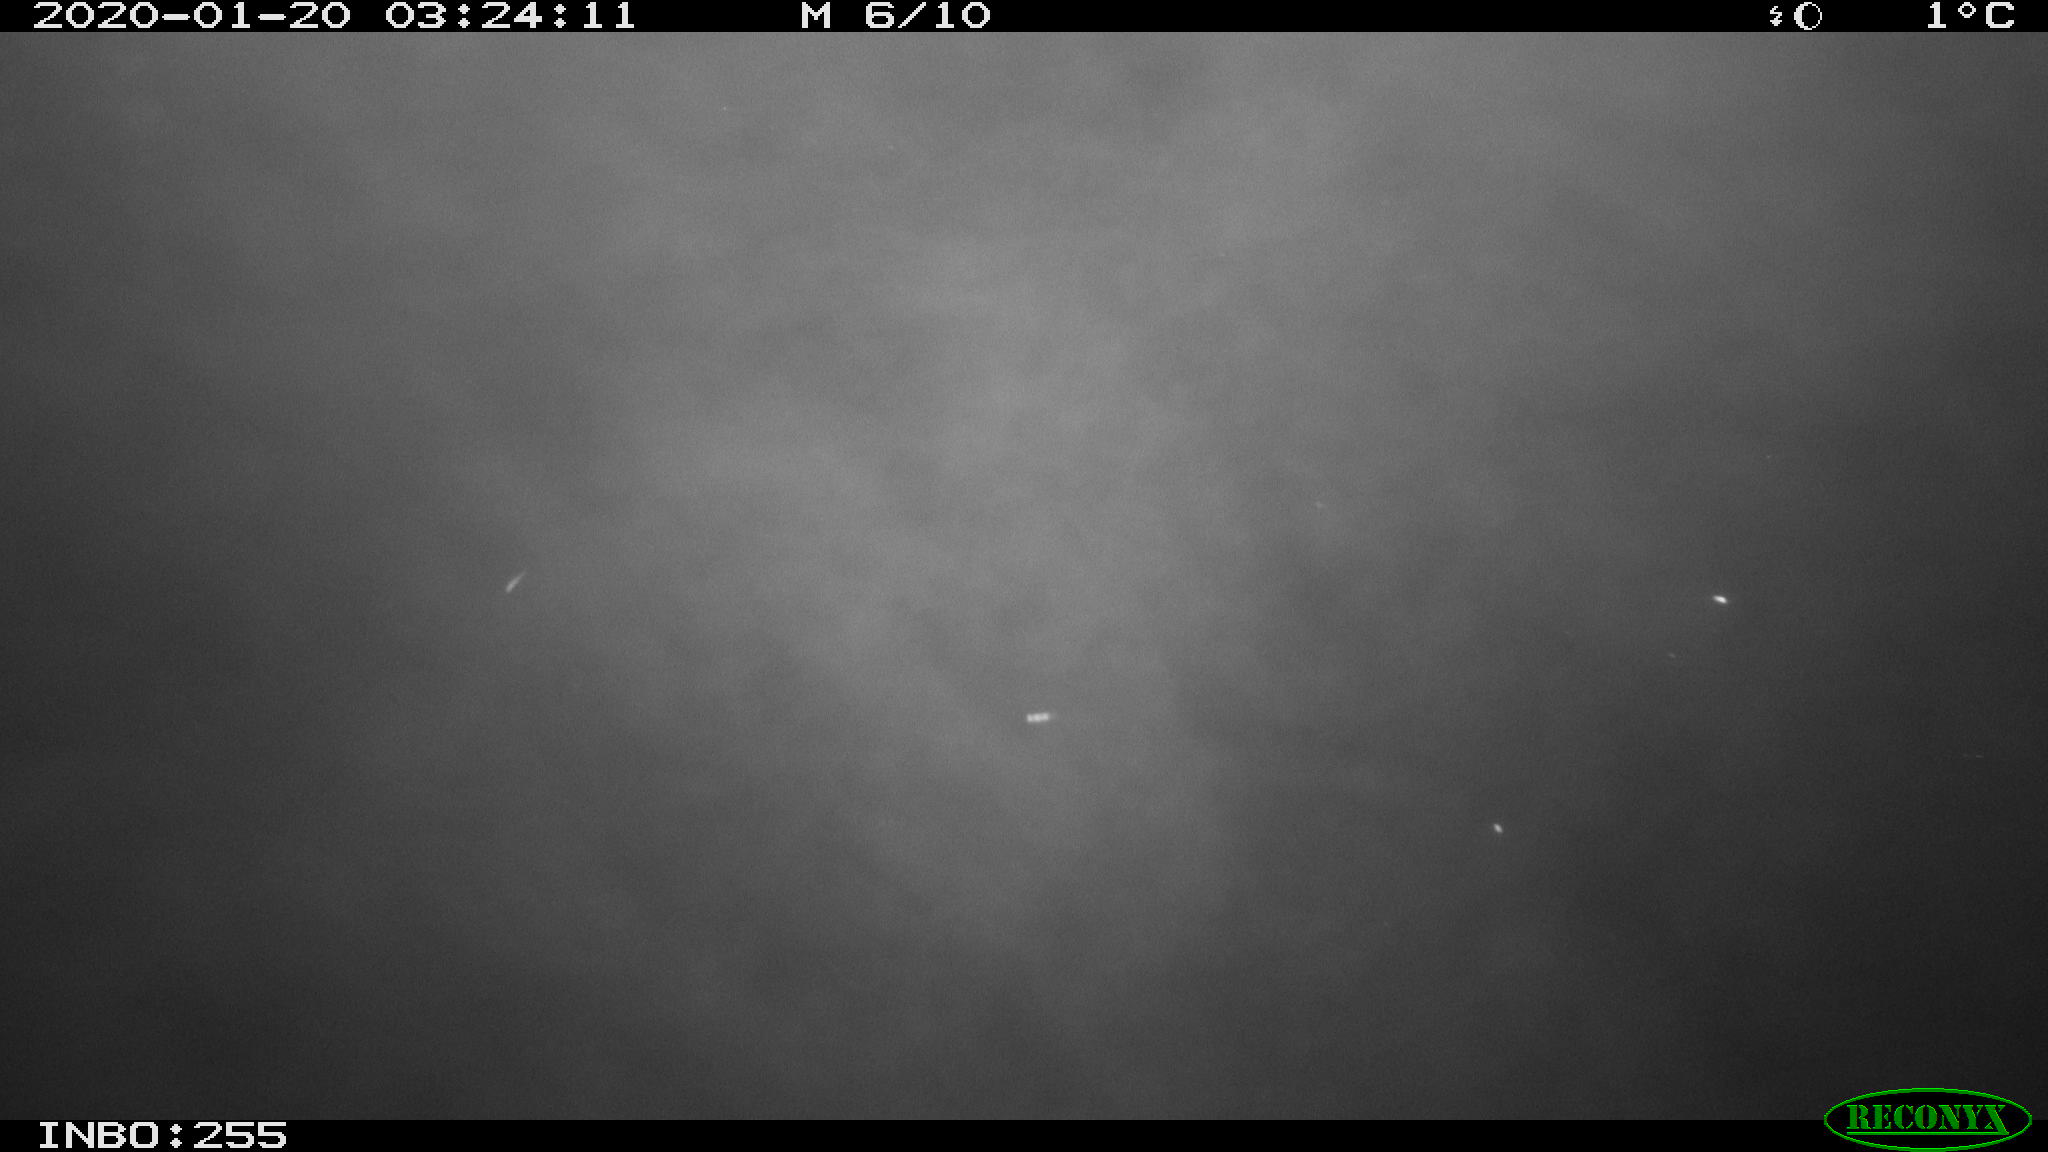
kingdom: Animalia
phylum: Chordata
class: Aves
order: Anseriformes
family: Anatidae
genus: Anas
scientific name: Anas platyrhynchos
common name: Mallard
